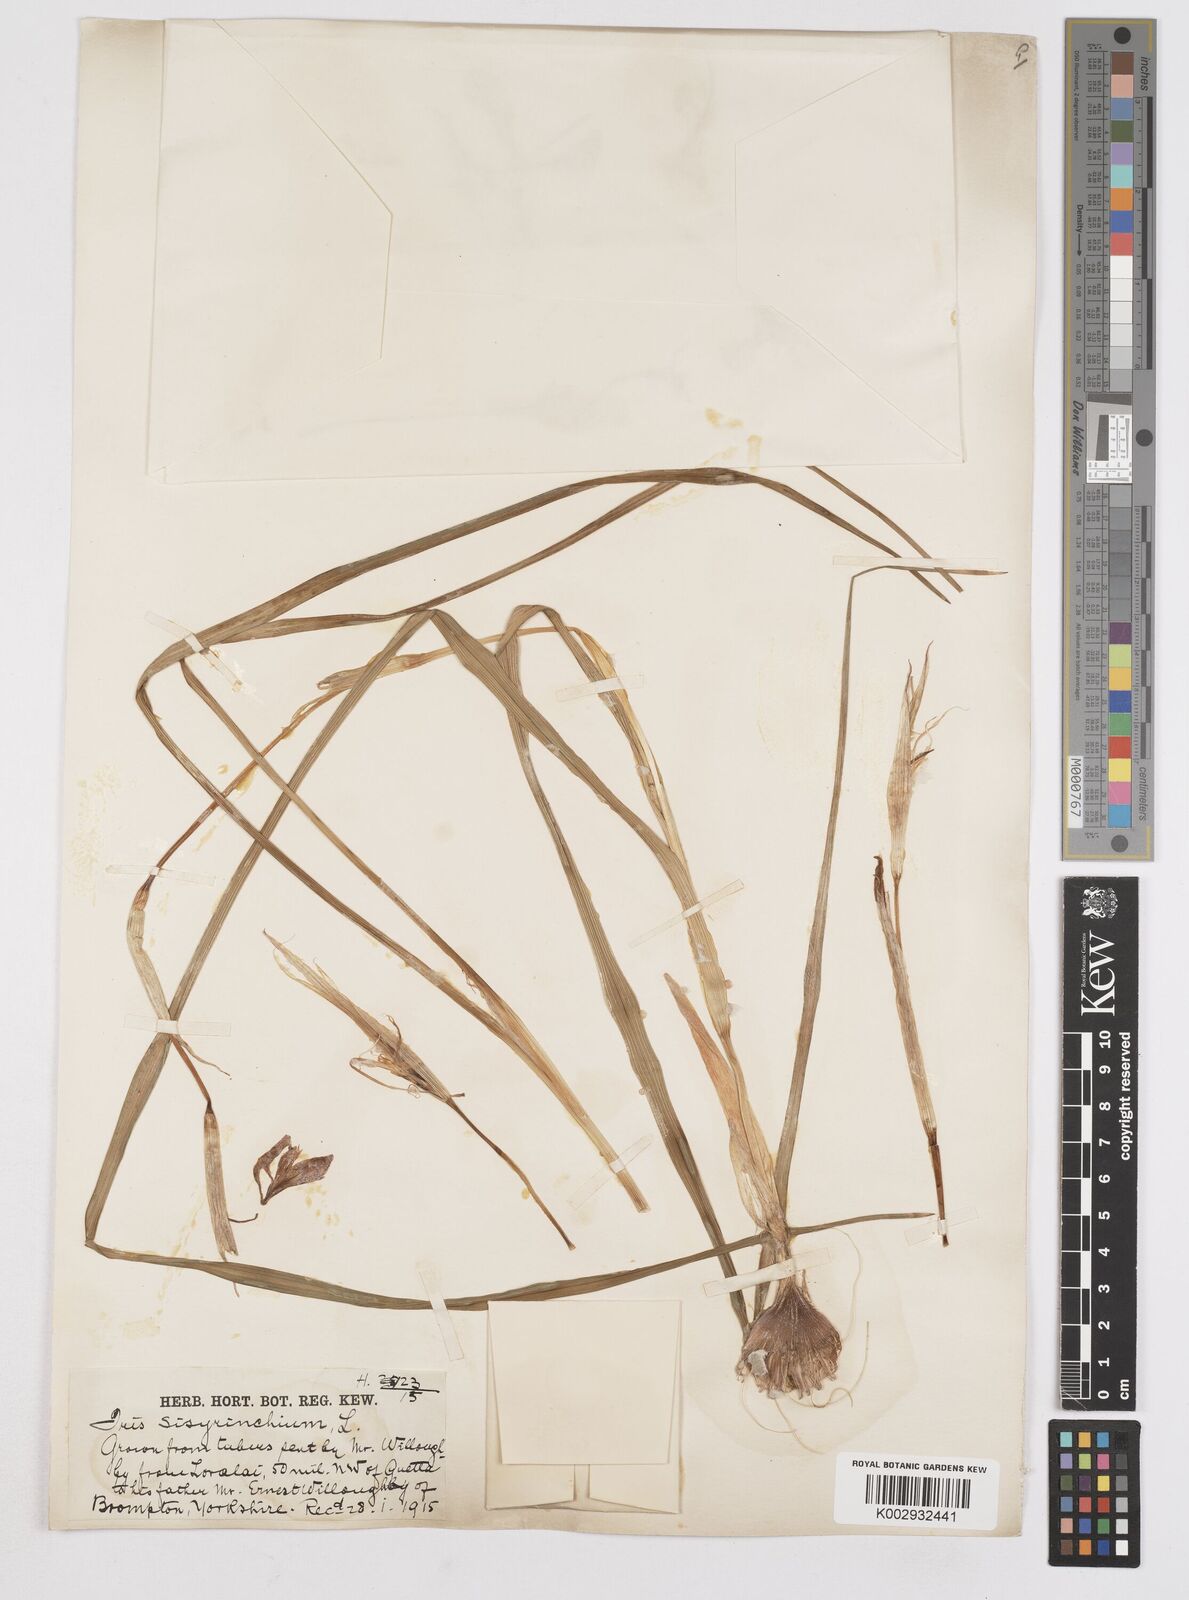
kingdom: Plantae
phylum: Tracheophyta
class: Liliopsida
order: Asparagales
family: Iridaceae
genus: Moraea
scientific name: Moraea sisyrinchium
